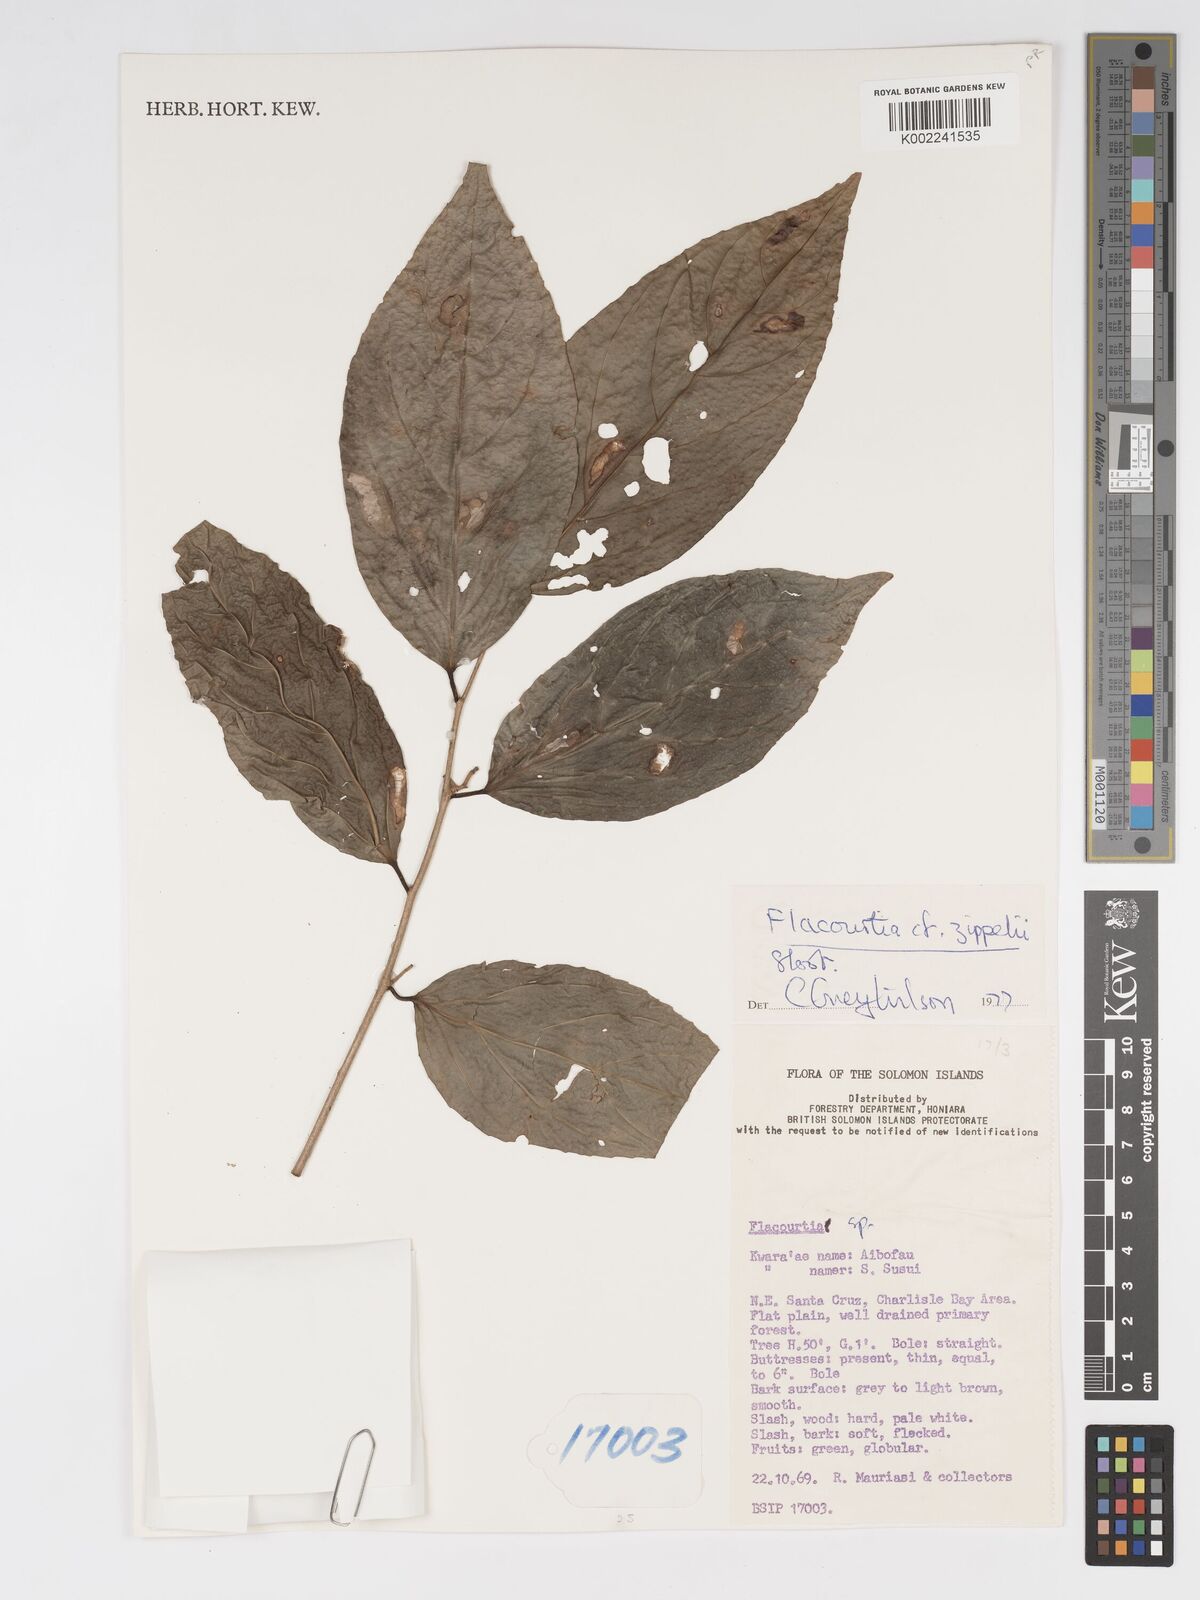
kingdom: Plantae
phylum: Tracheophyta
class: Magnoliopsida
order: Malpighiales
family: Salicaceae
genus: Flacourtia
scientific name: Flacourtia zippelii
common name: Zippeli plum
